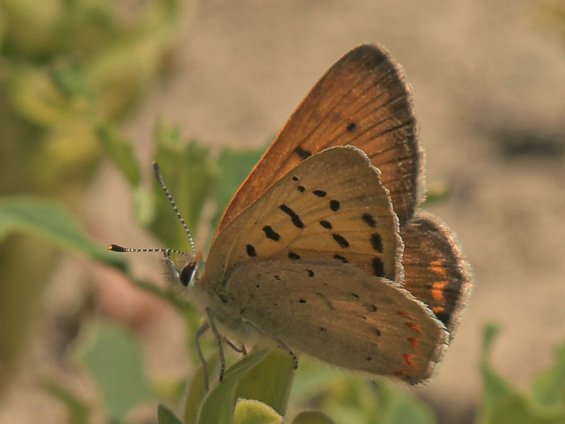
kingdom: Animalia
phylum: Arthropoda
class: Insecta
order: Lepidoptera
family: Sesiidae
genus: Sesia
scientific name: Sesia Lycaena helloides
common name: Purplish Copper
